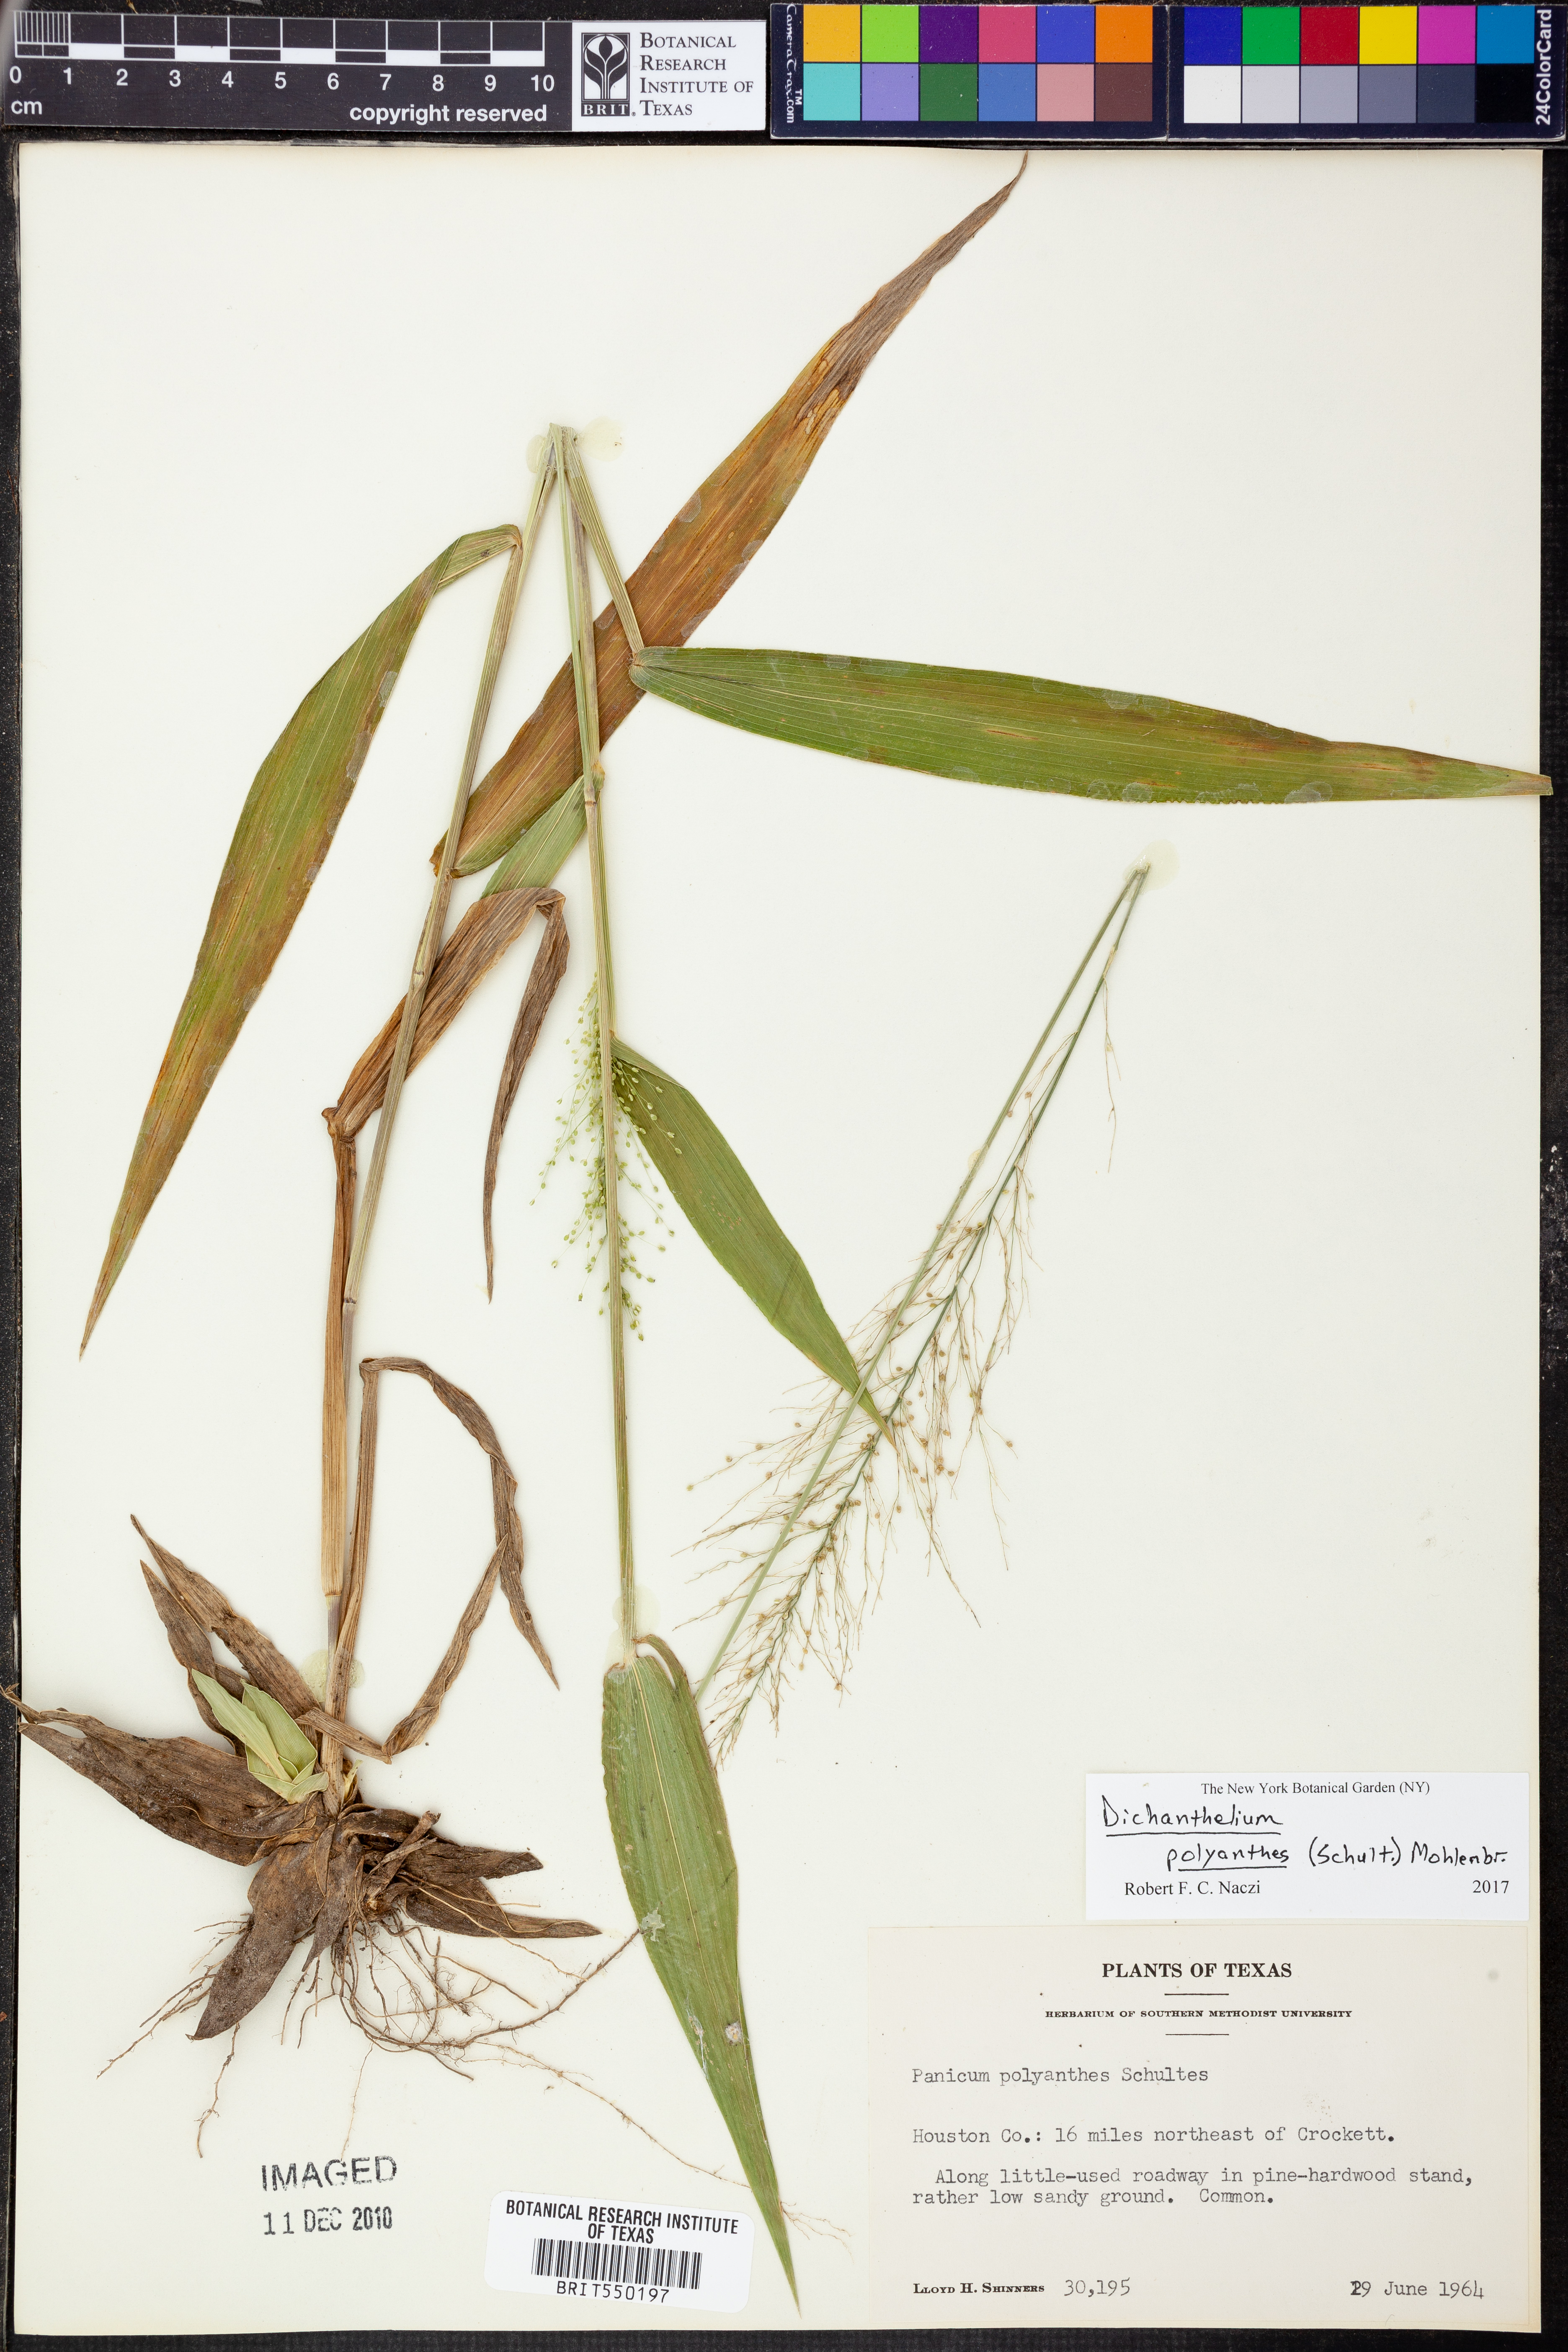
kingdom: Plantae
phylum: Tracheophyta
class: Liliopsida
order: Poales
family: Poaceae
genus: Dichanthelium
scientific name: Dichanthelium polyanthes
